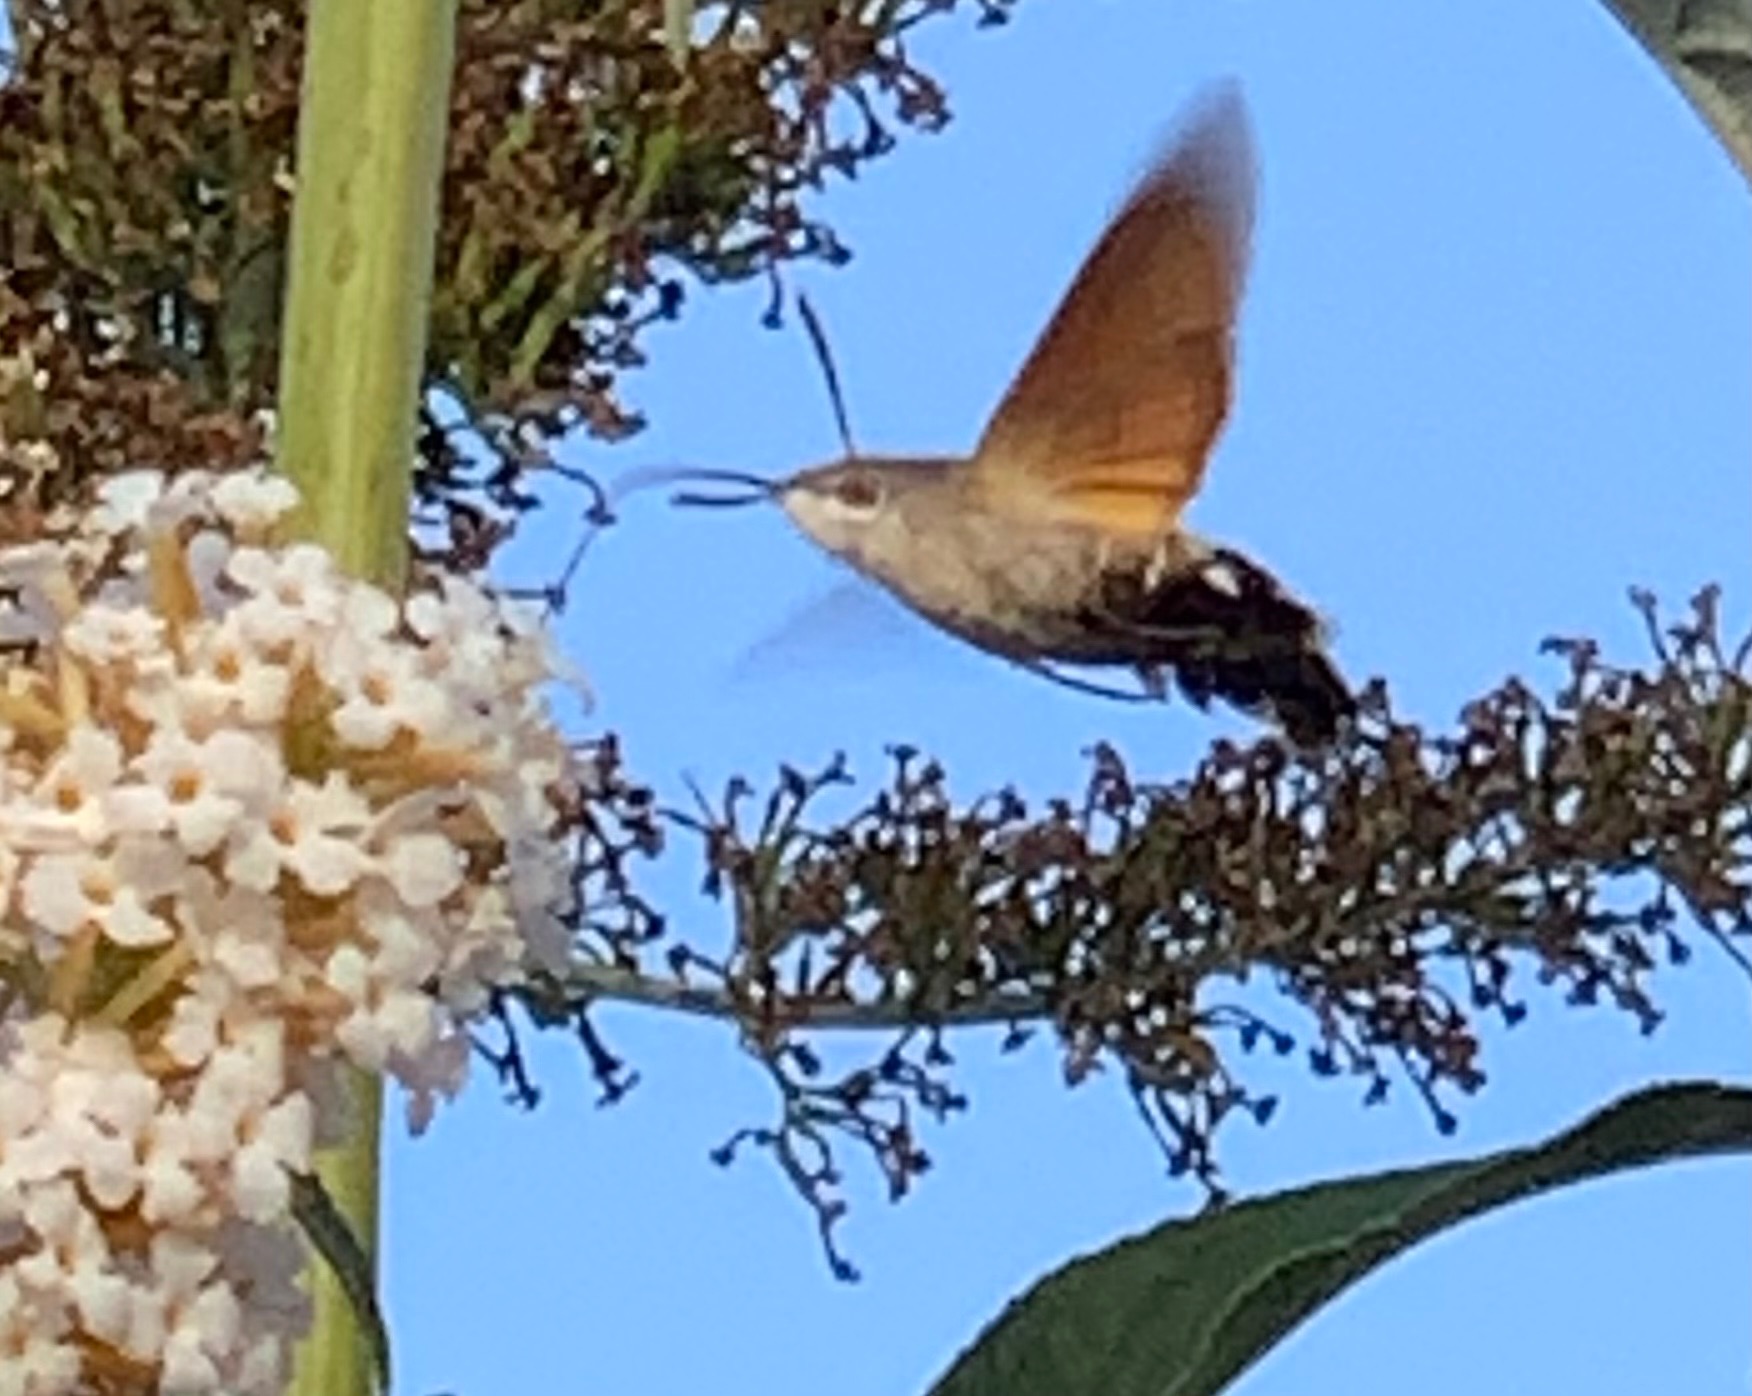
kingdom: Animalia
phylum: Arthropoda
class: Insecta
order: Lepidoptera
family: Sphingidae
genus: Macroglossum
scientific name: Macroglossum stellatarum
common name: Duehale
